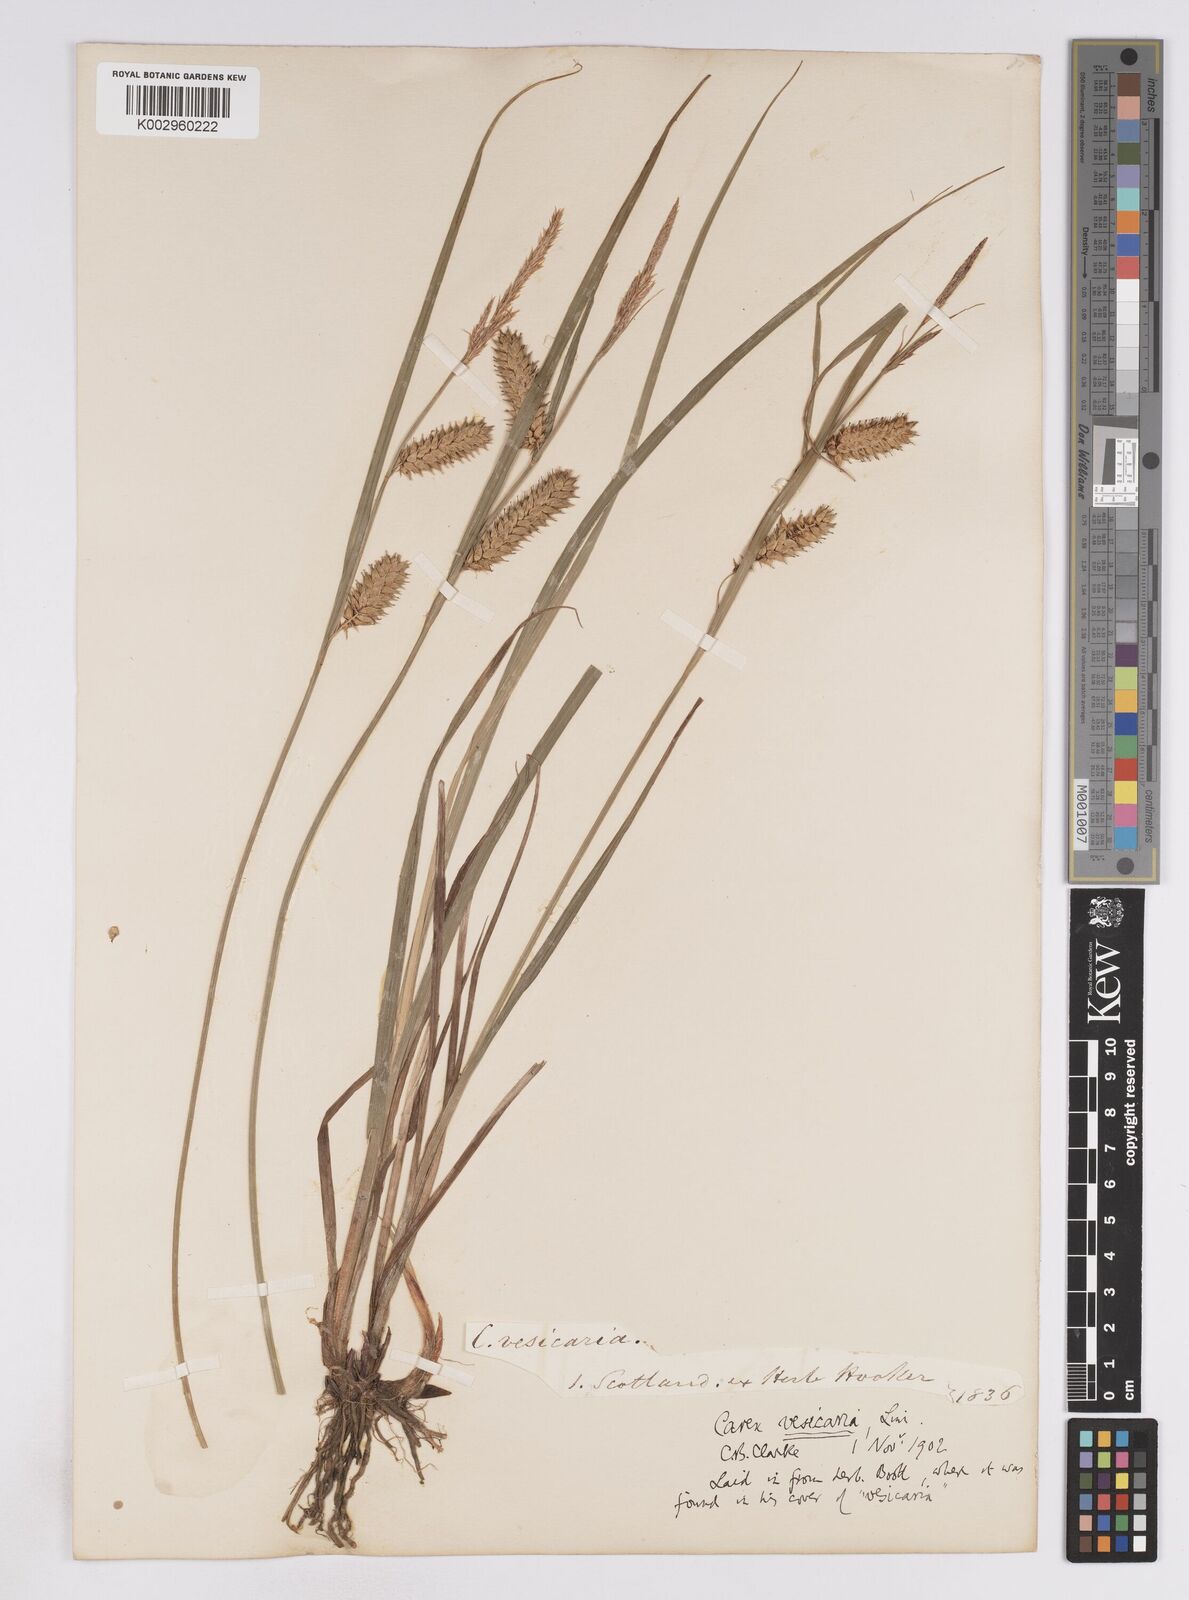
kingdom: Plantae
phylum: Tracheophyta
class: Liliopsida
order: Poales
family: Cyperaceae
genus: Carex
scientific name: Carex vesicaria
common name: Bladder-sedge
